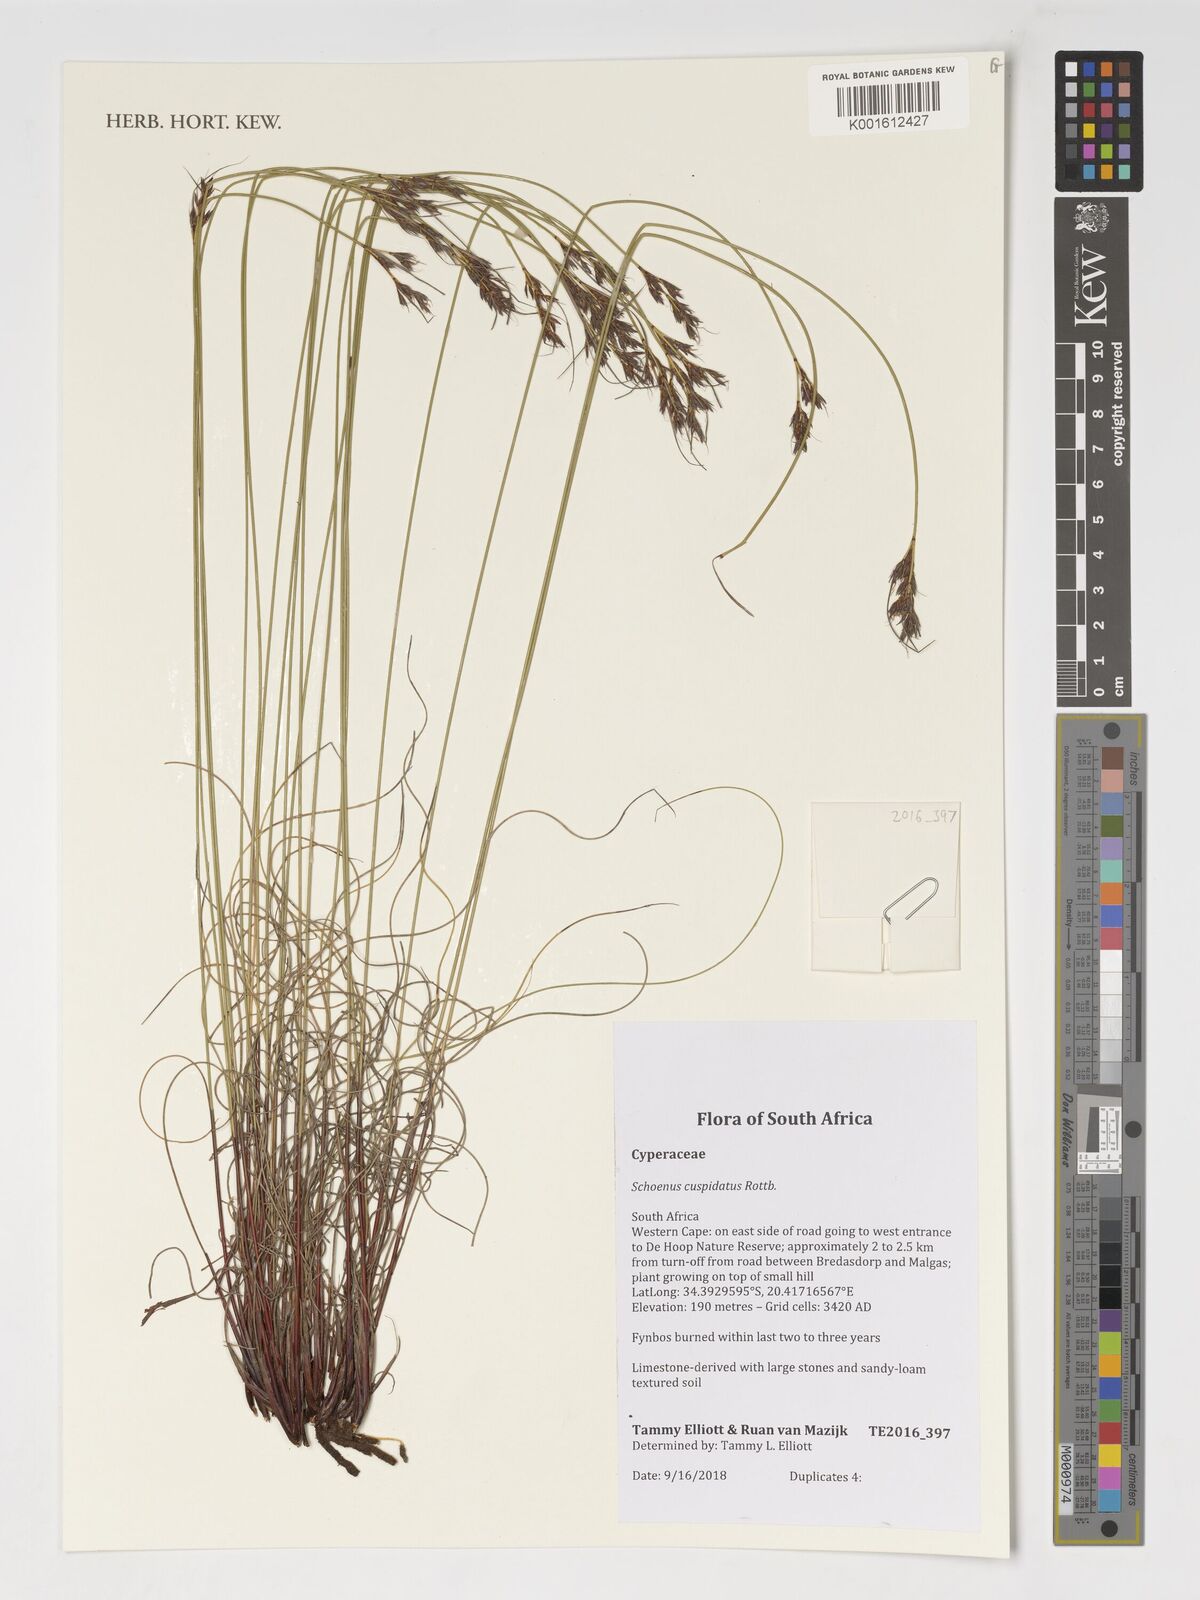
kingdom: Plantae
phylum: Tracheophyta
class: Liliopsida
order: Poales
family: Cyperaceae
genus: Schoenus
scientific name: Schoenus cuspidatus
